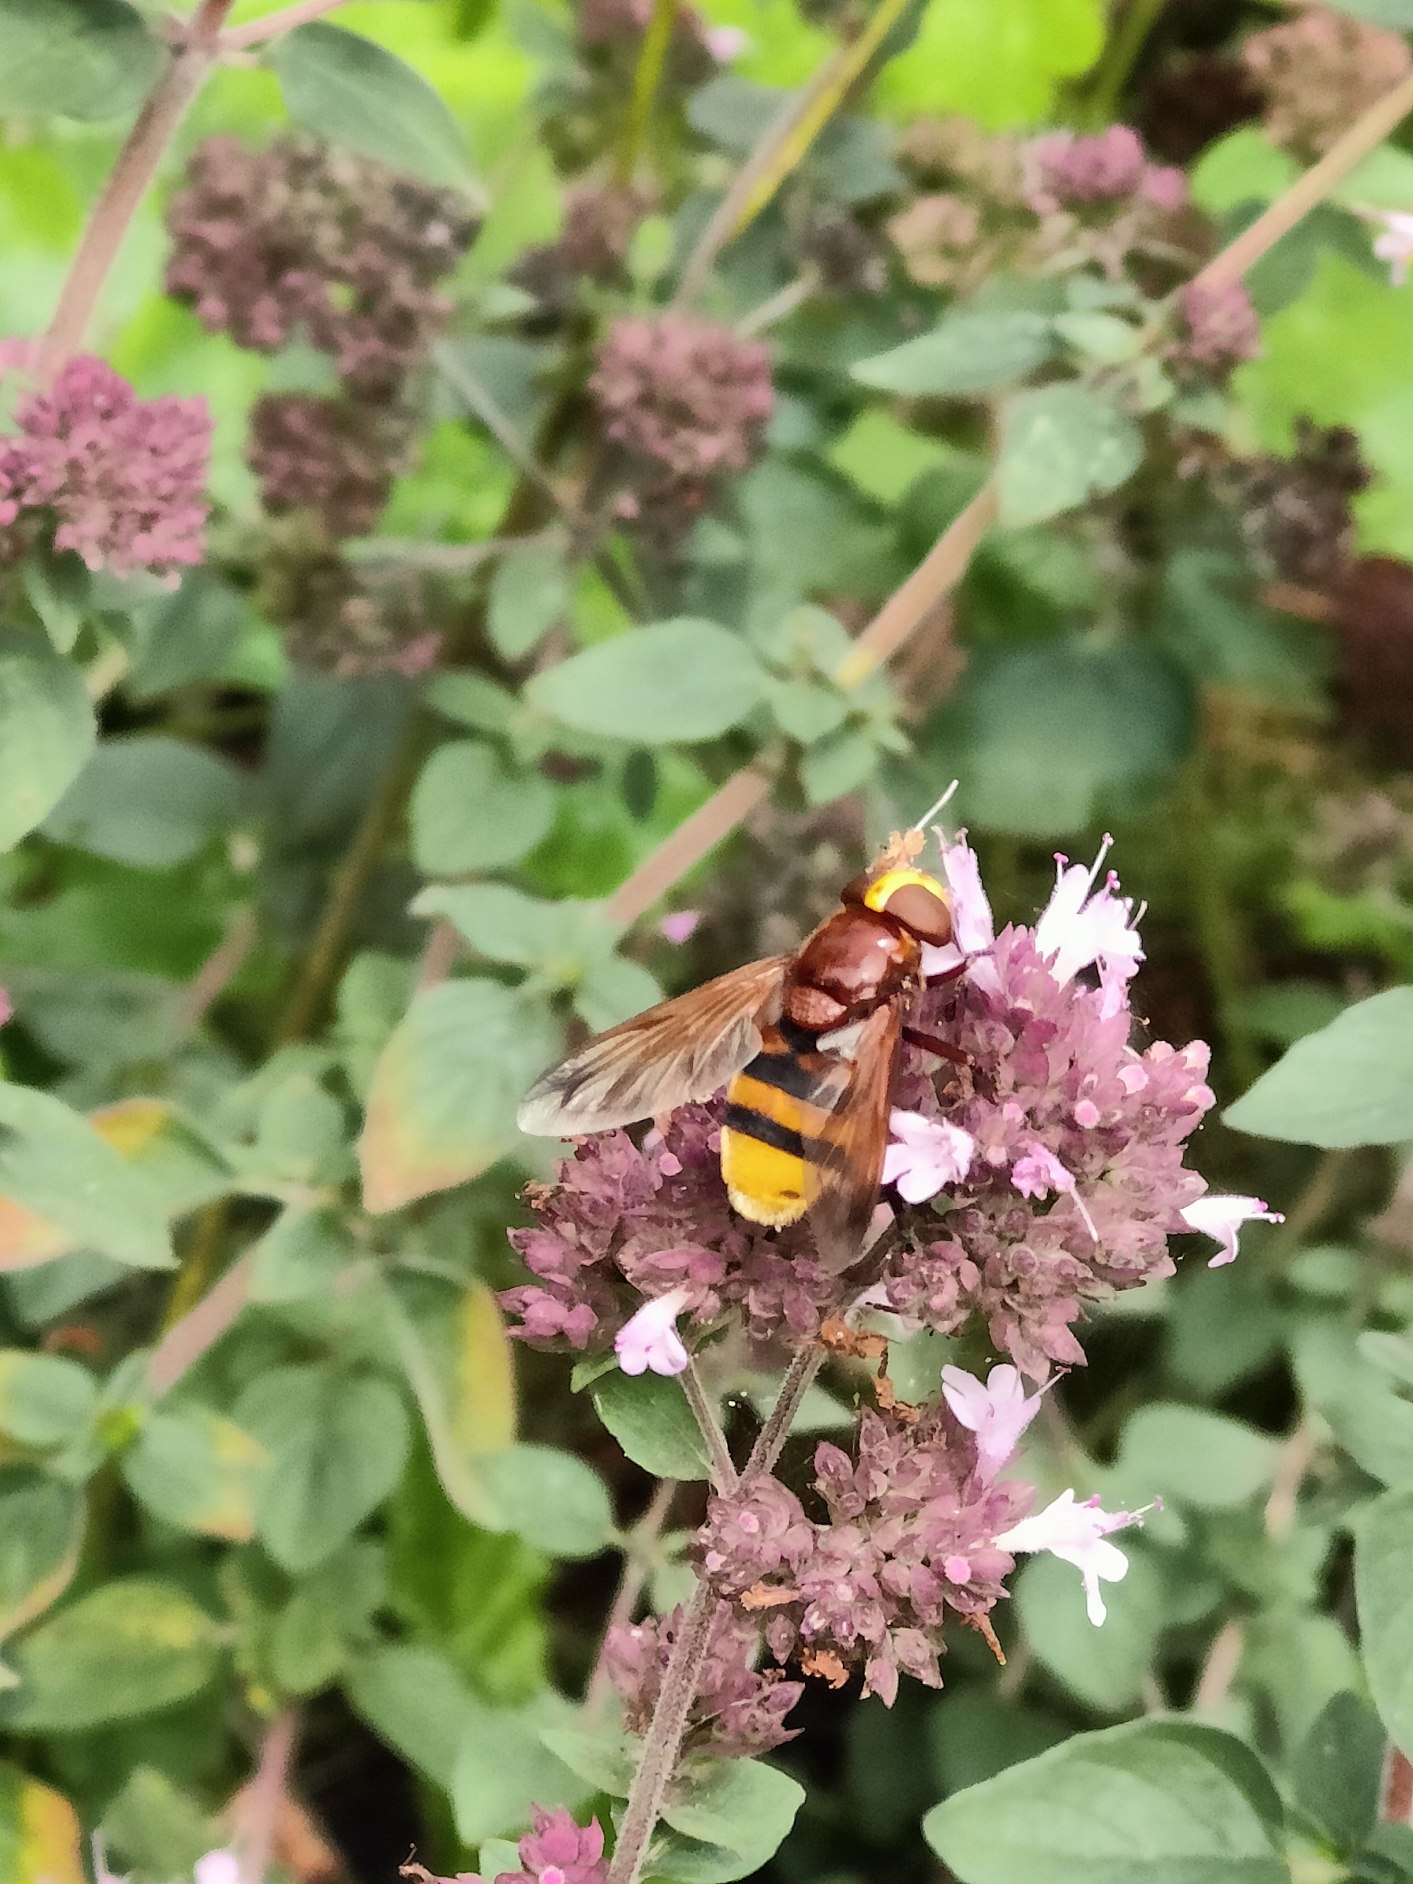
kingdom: Animalia
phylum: Arthropoda
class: Insecta
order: Diptera
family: Syrphidae
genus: Volucella
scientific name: Volucella zonaria
